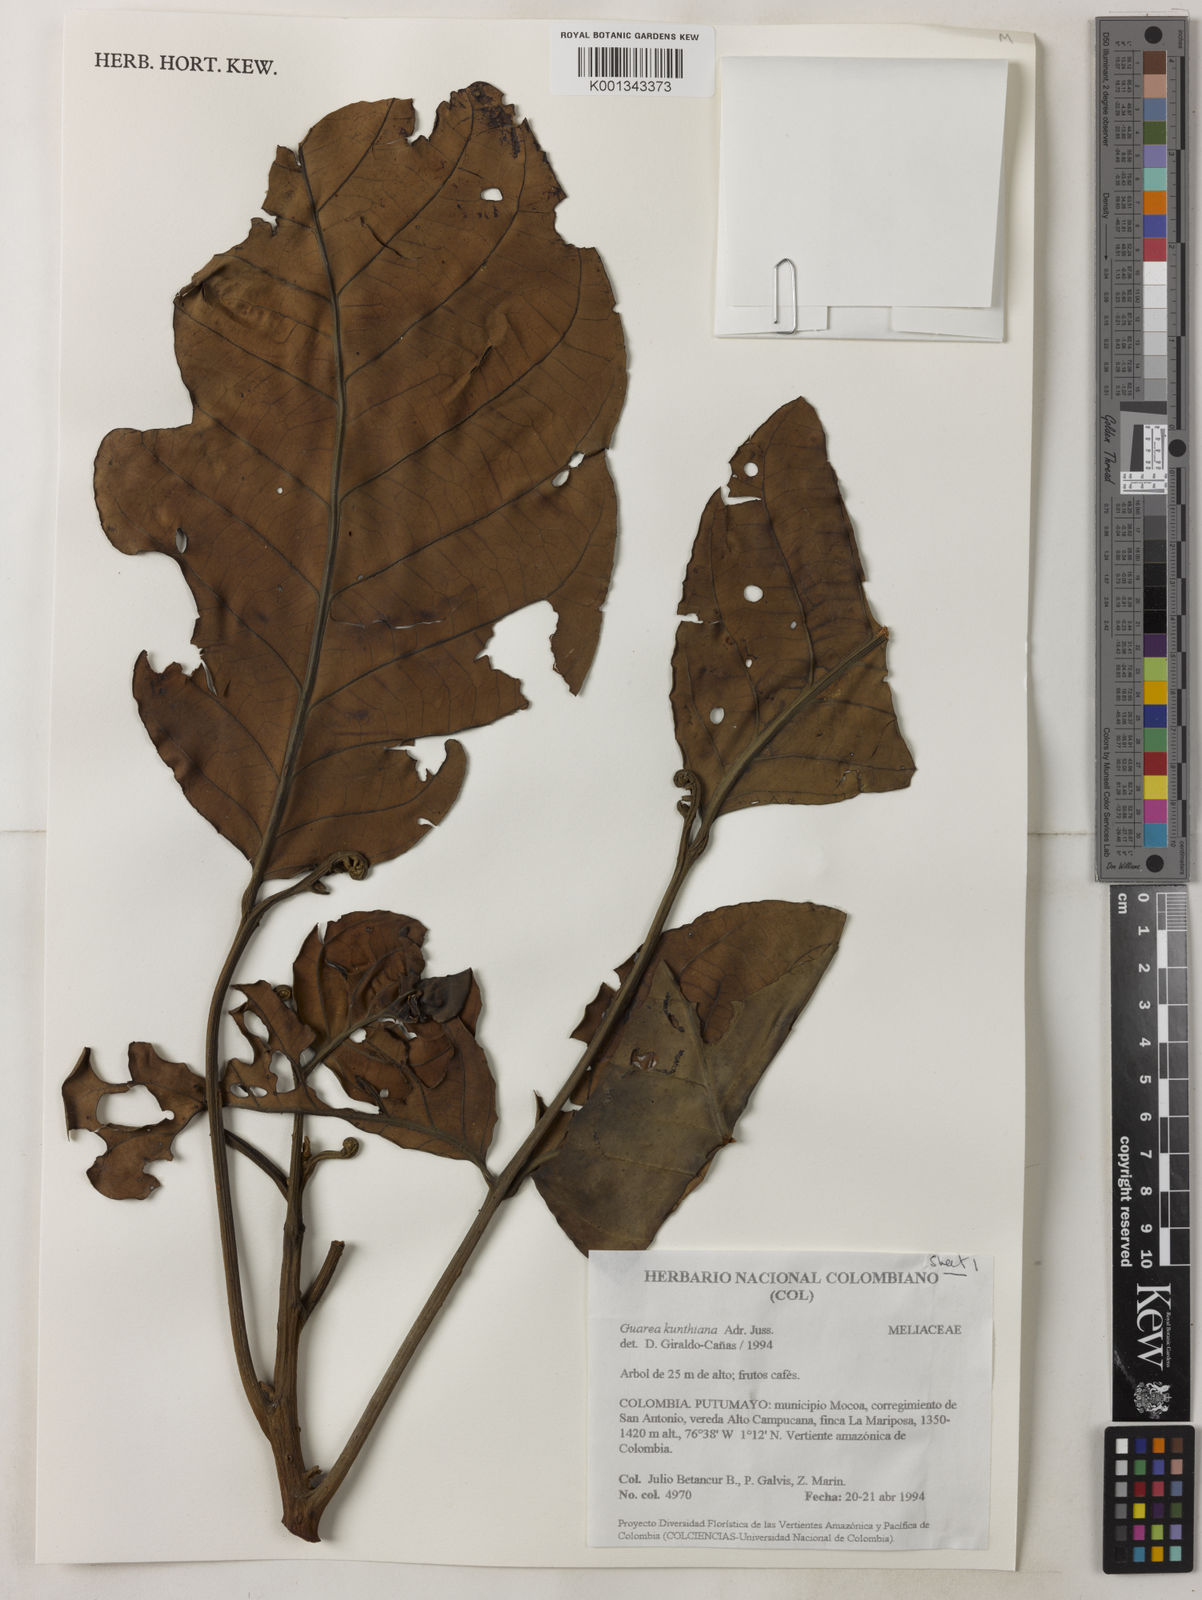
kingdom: Plantae
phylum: Tracheophyta
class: Magnoliopsida
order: Sapindales
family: Meliaceae
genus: Guarea
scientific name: Guarea kunthiana
